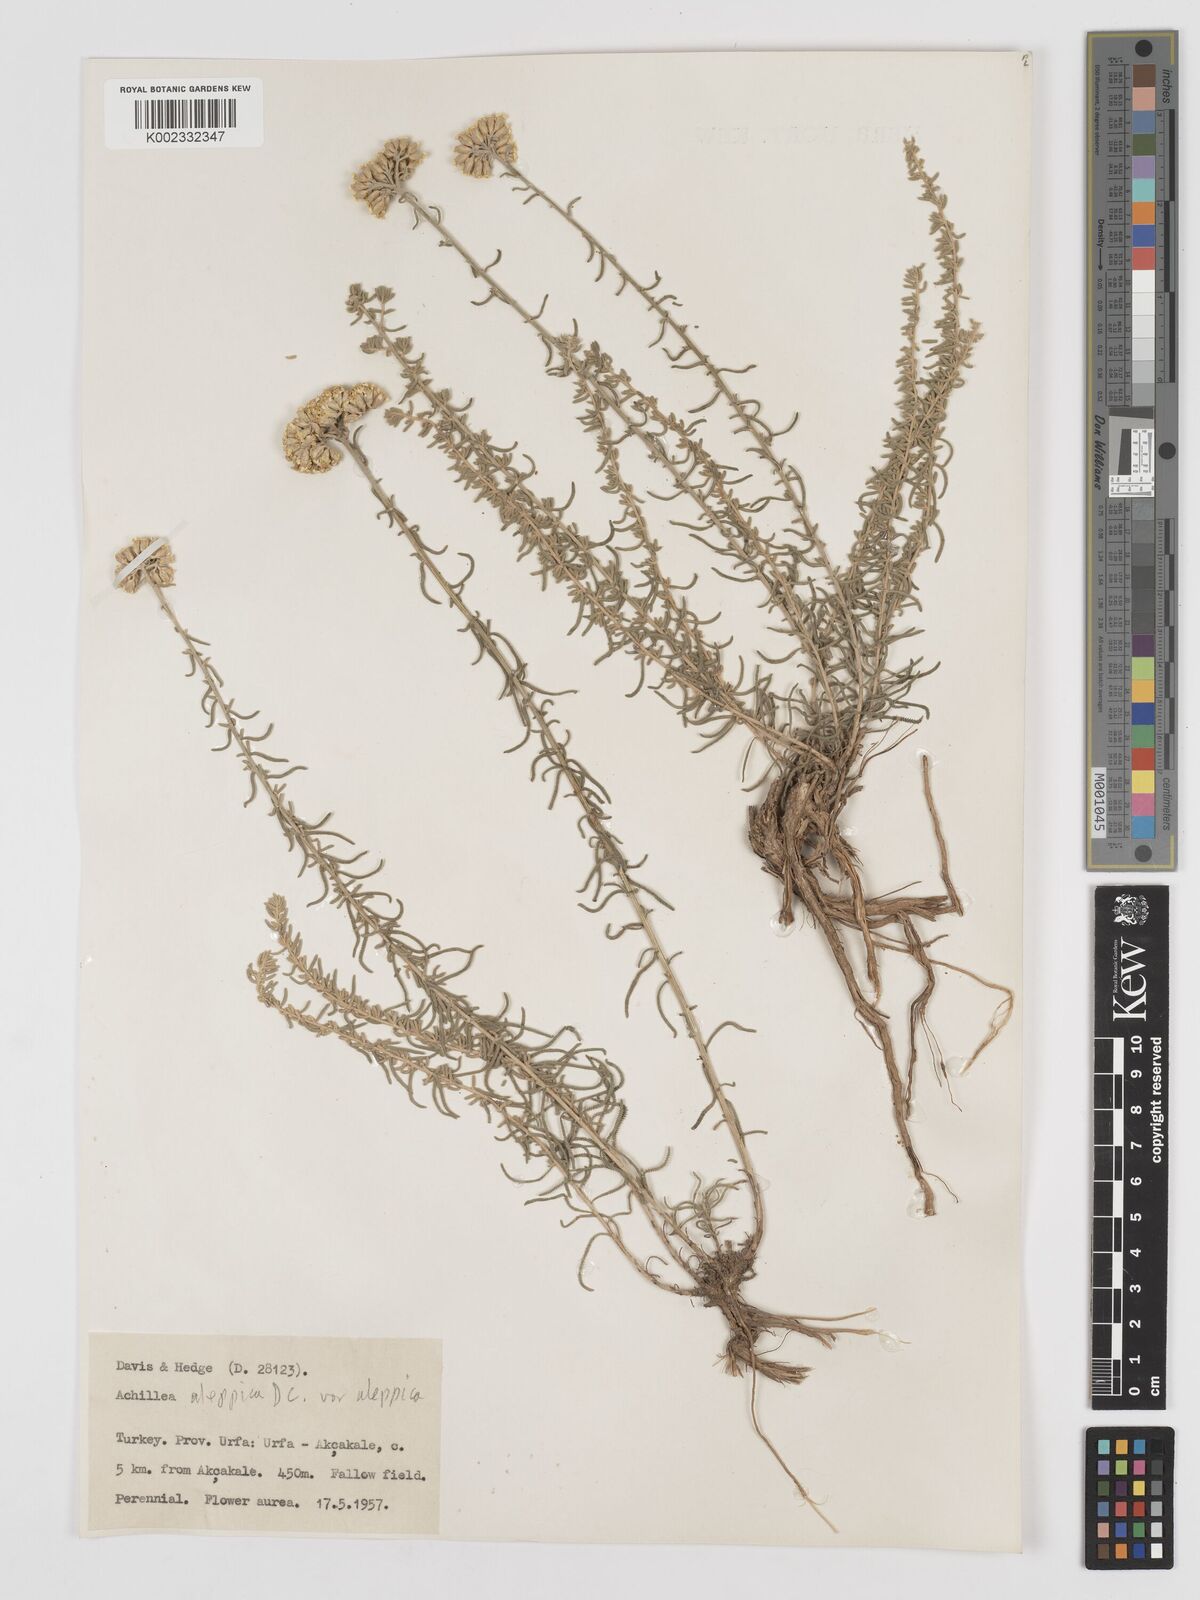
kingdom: Plantae
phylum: Tracheophyta
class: Magnoliopsida
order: Asterales
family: Asteraceae
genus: Achillea
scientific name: Achillea aleppica
